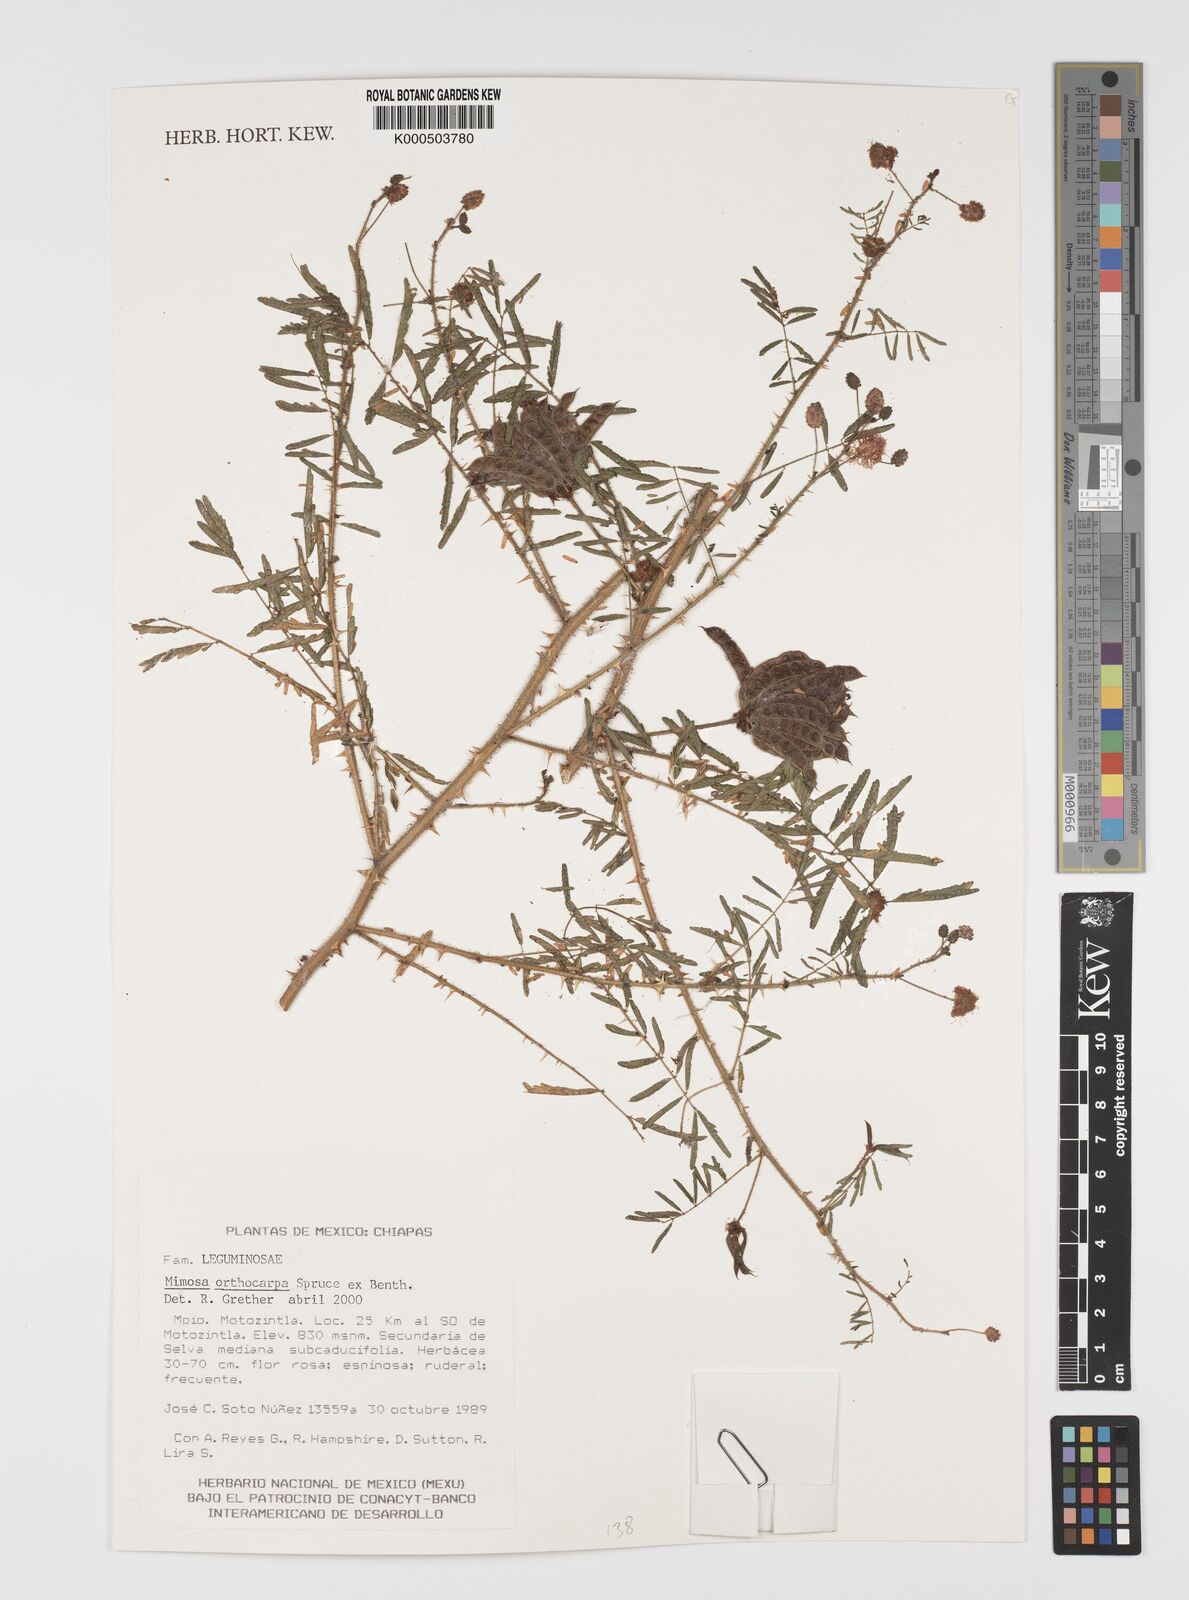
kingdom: Plantae
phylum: Tracheophyta
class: Magnoliopsida
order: Fabales
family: Fabaceae
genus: Mimosa
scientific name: Mimosa orthocarpa
